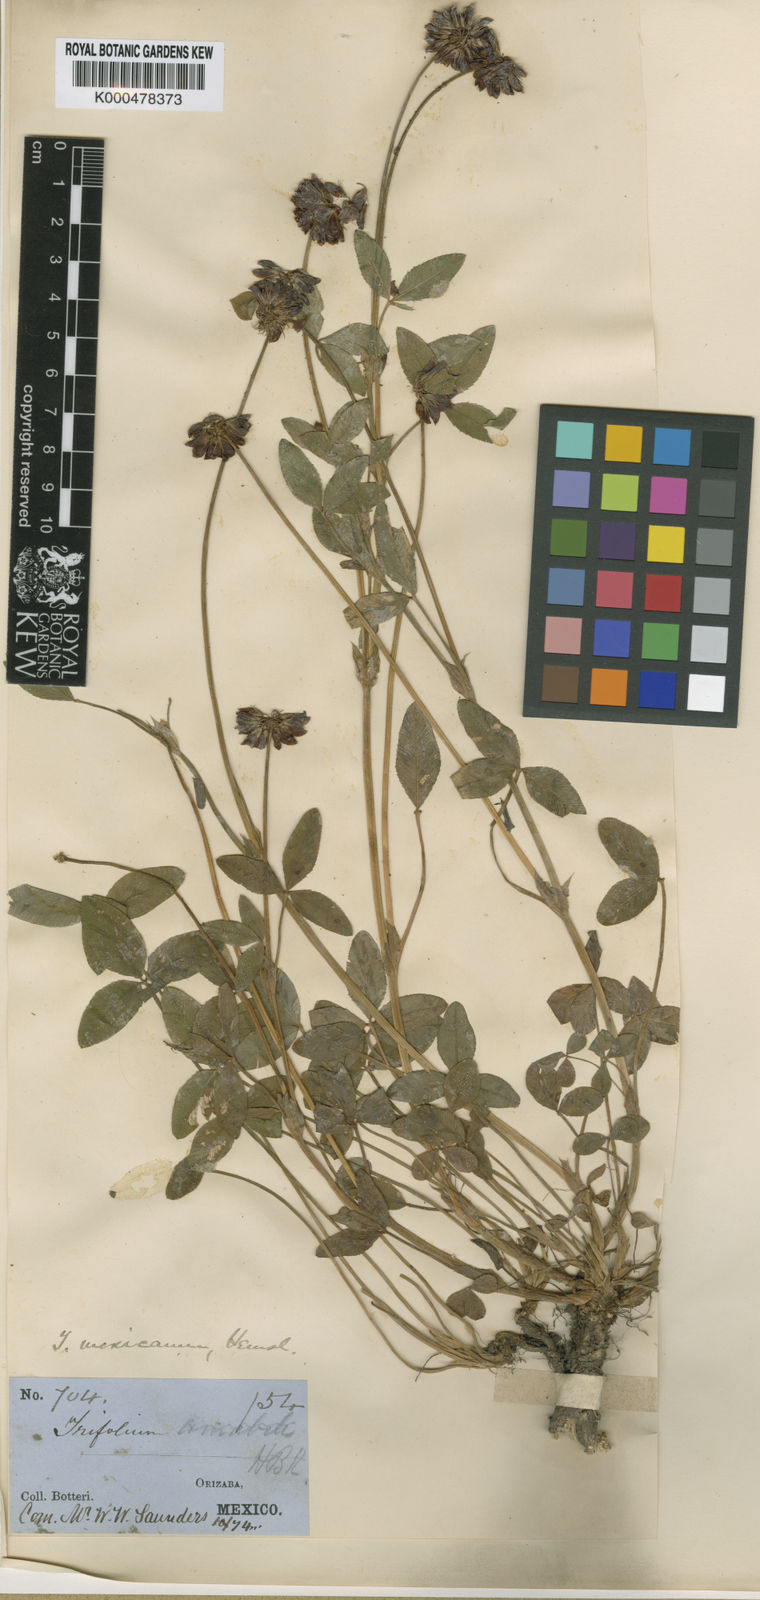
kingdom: Plantae
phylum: Tracheophyta
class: Magnoliopsida
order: Fabales
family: Fabaceae
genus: Trifolium
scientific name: Trifolium amabile
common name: Aztec clover
